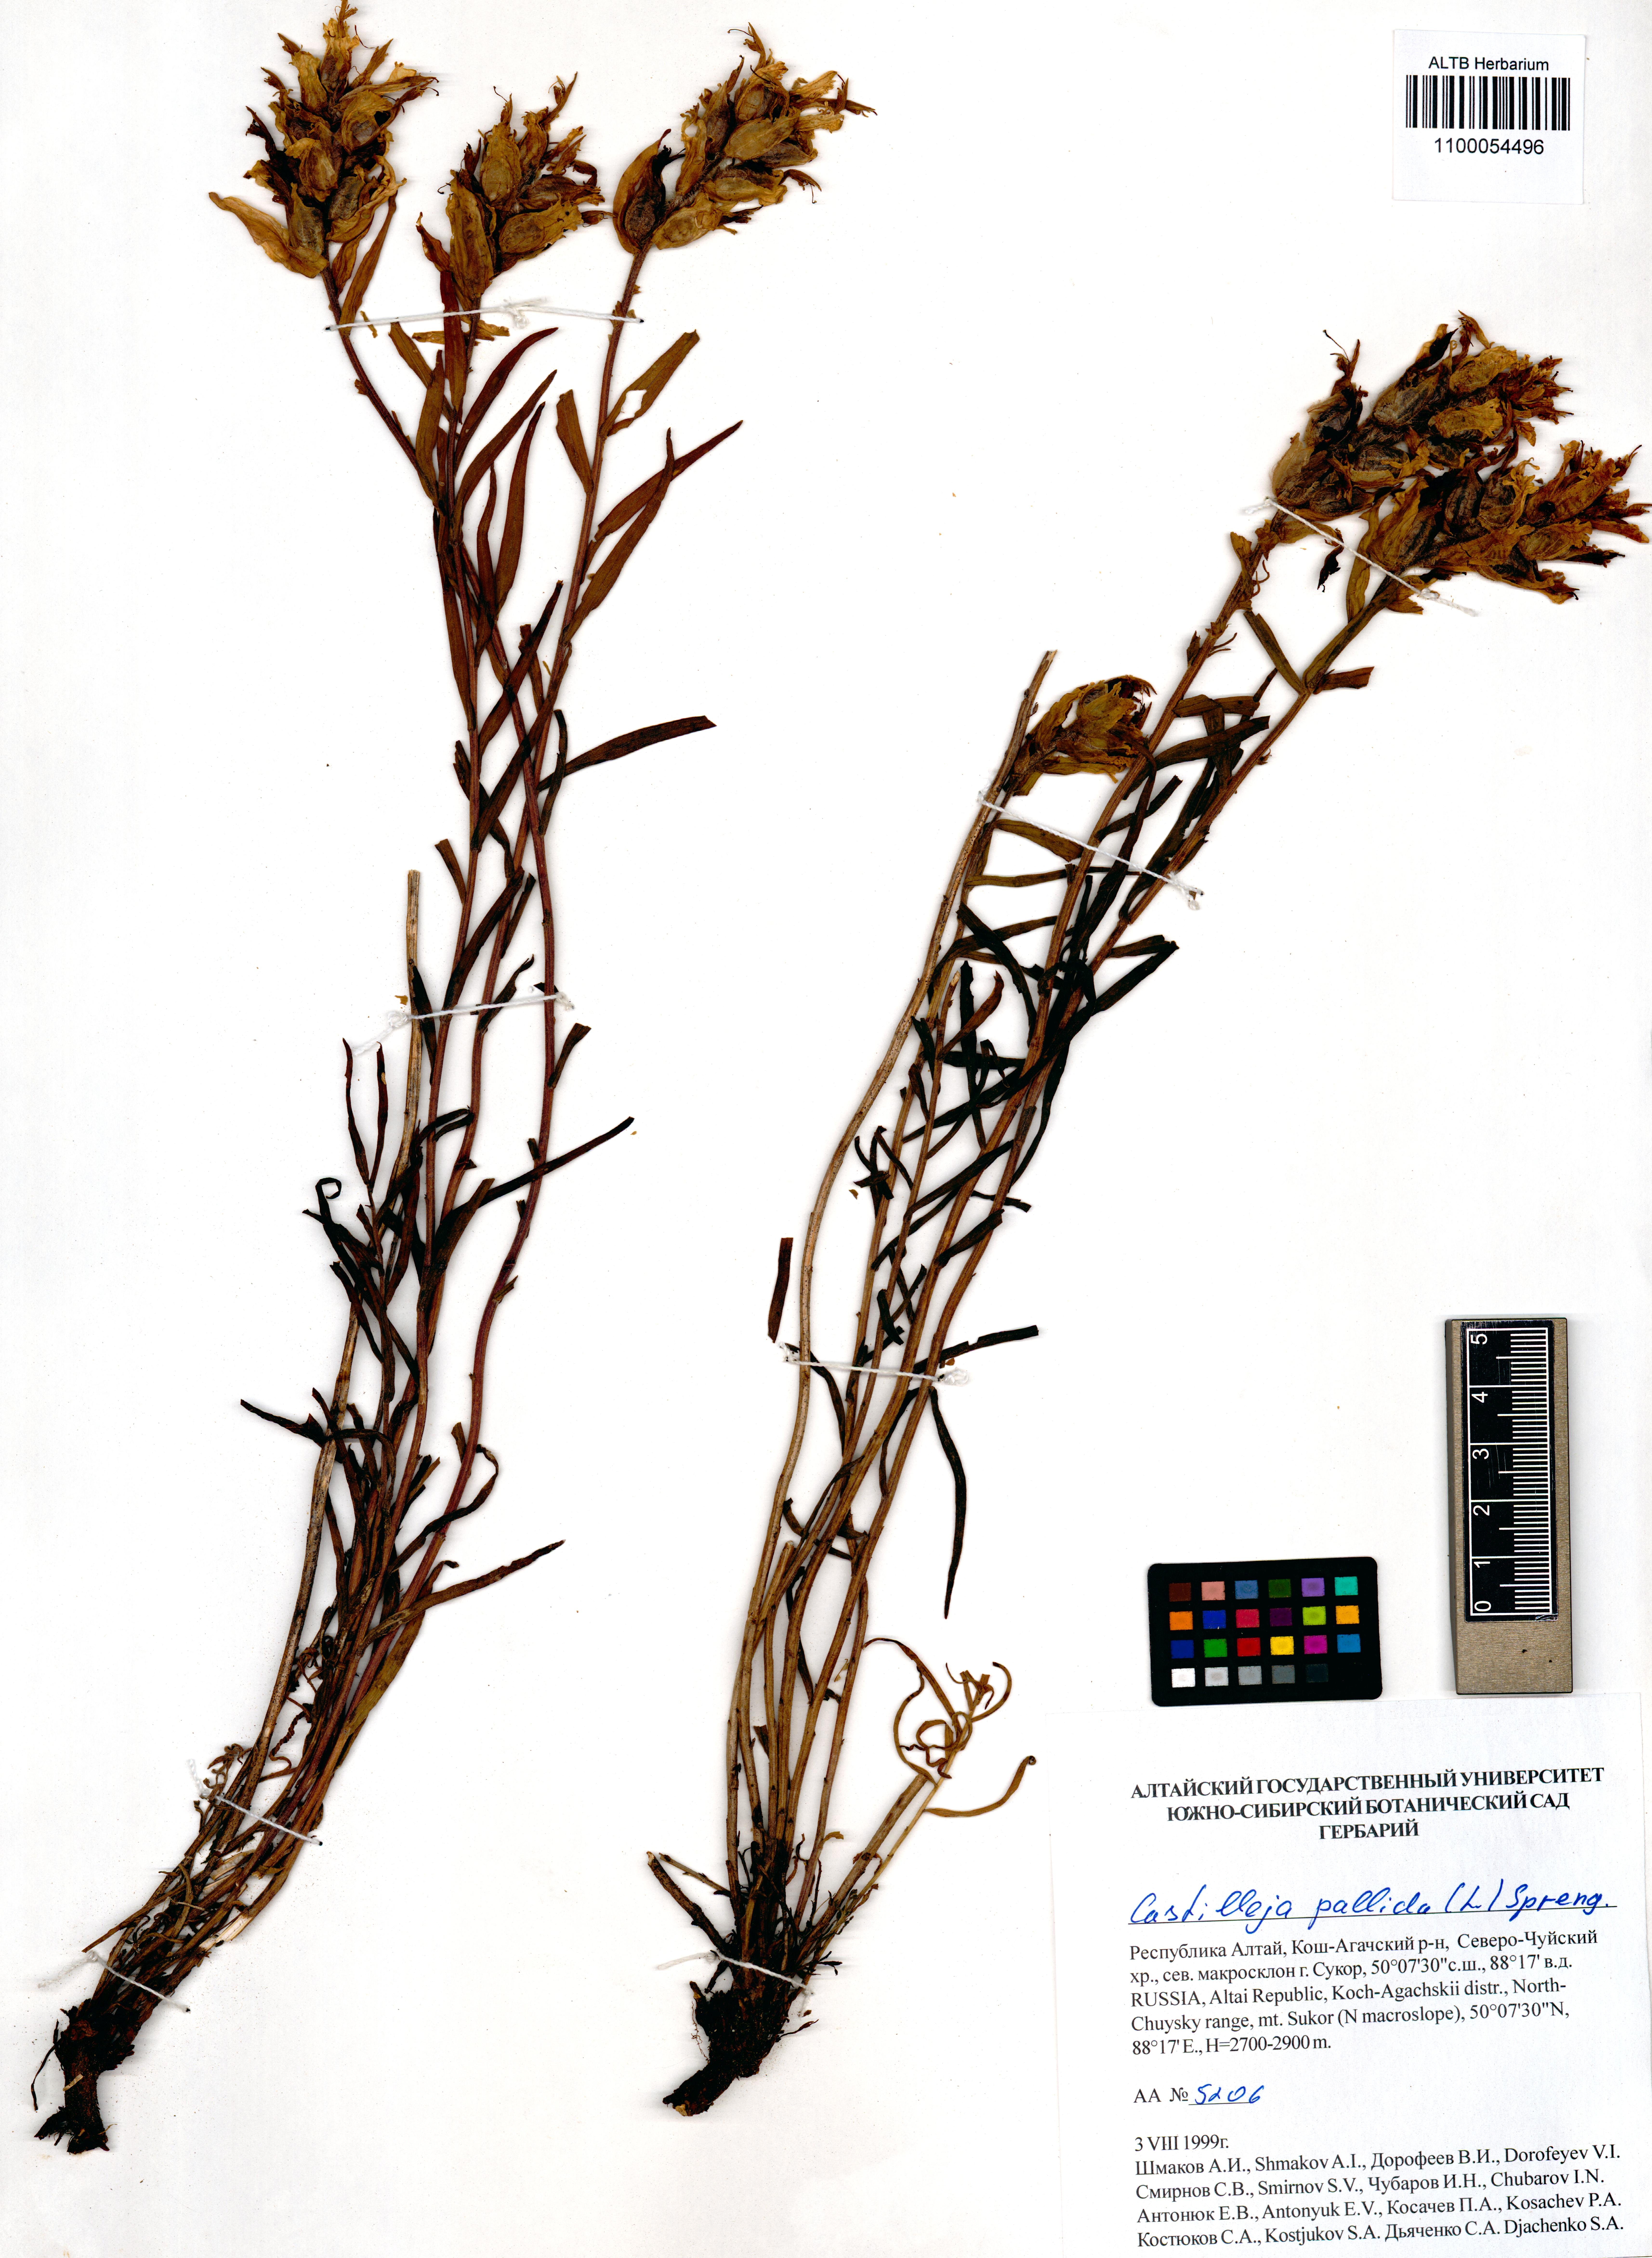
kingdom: Plantae
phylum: Tracheophyta
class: Magnoliopsida
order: Lamiales
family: Orobanchaceae
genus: Castilleja
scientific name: Castilleja pallida
